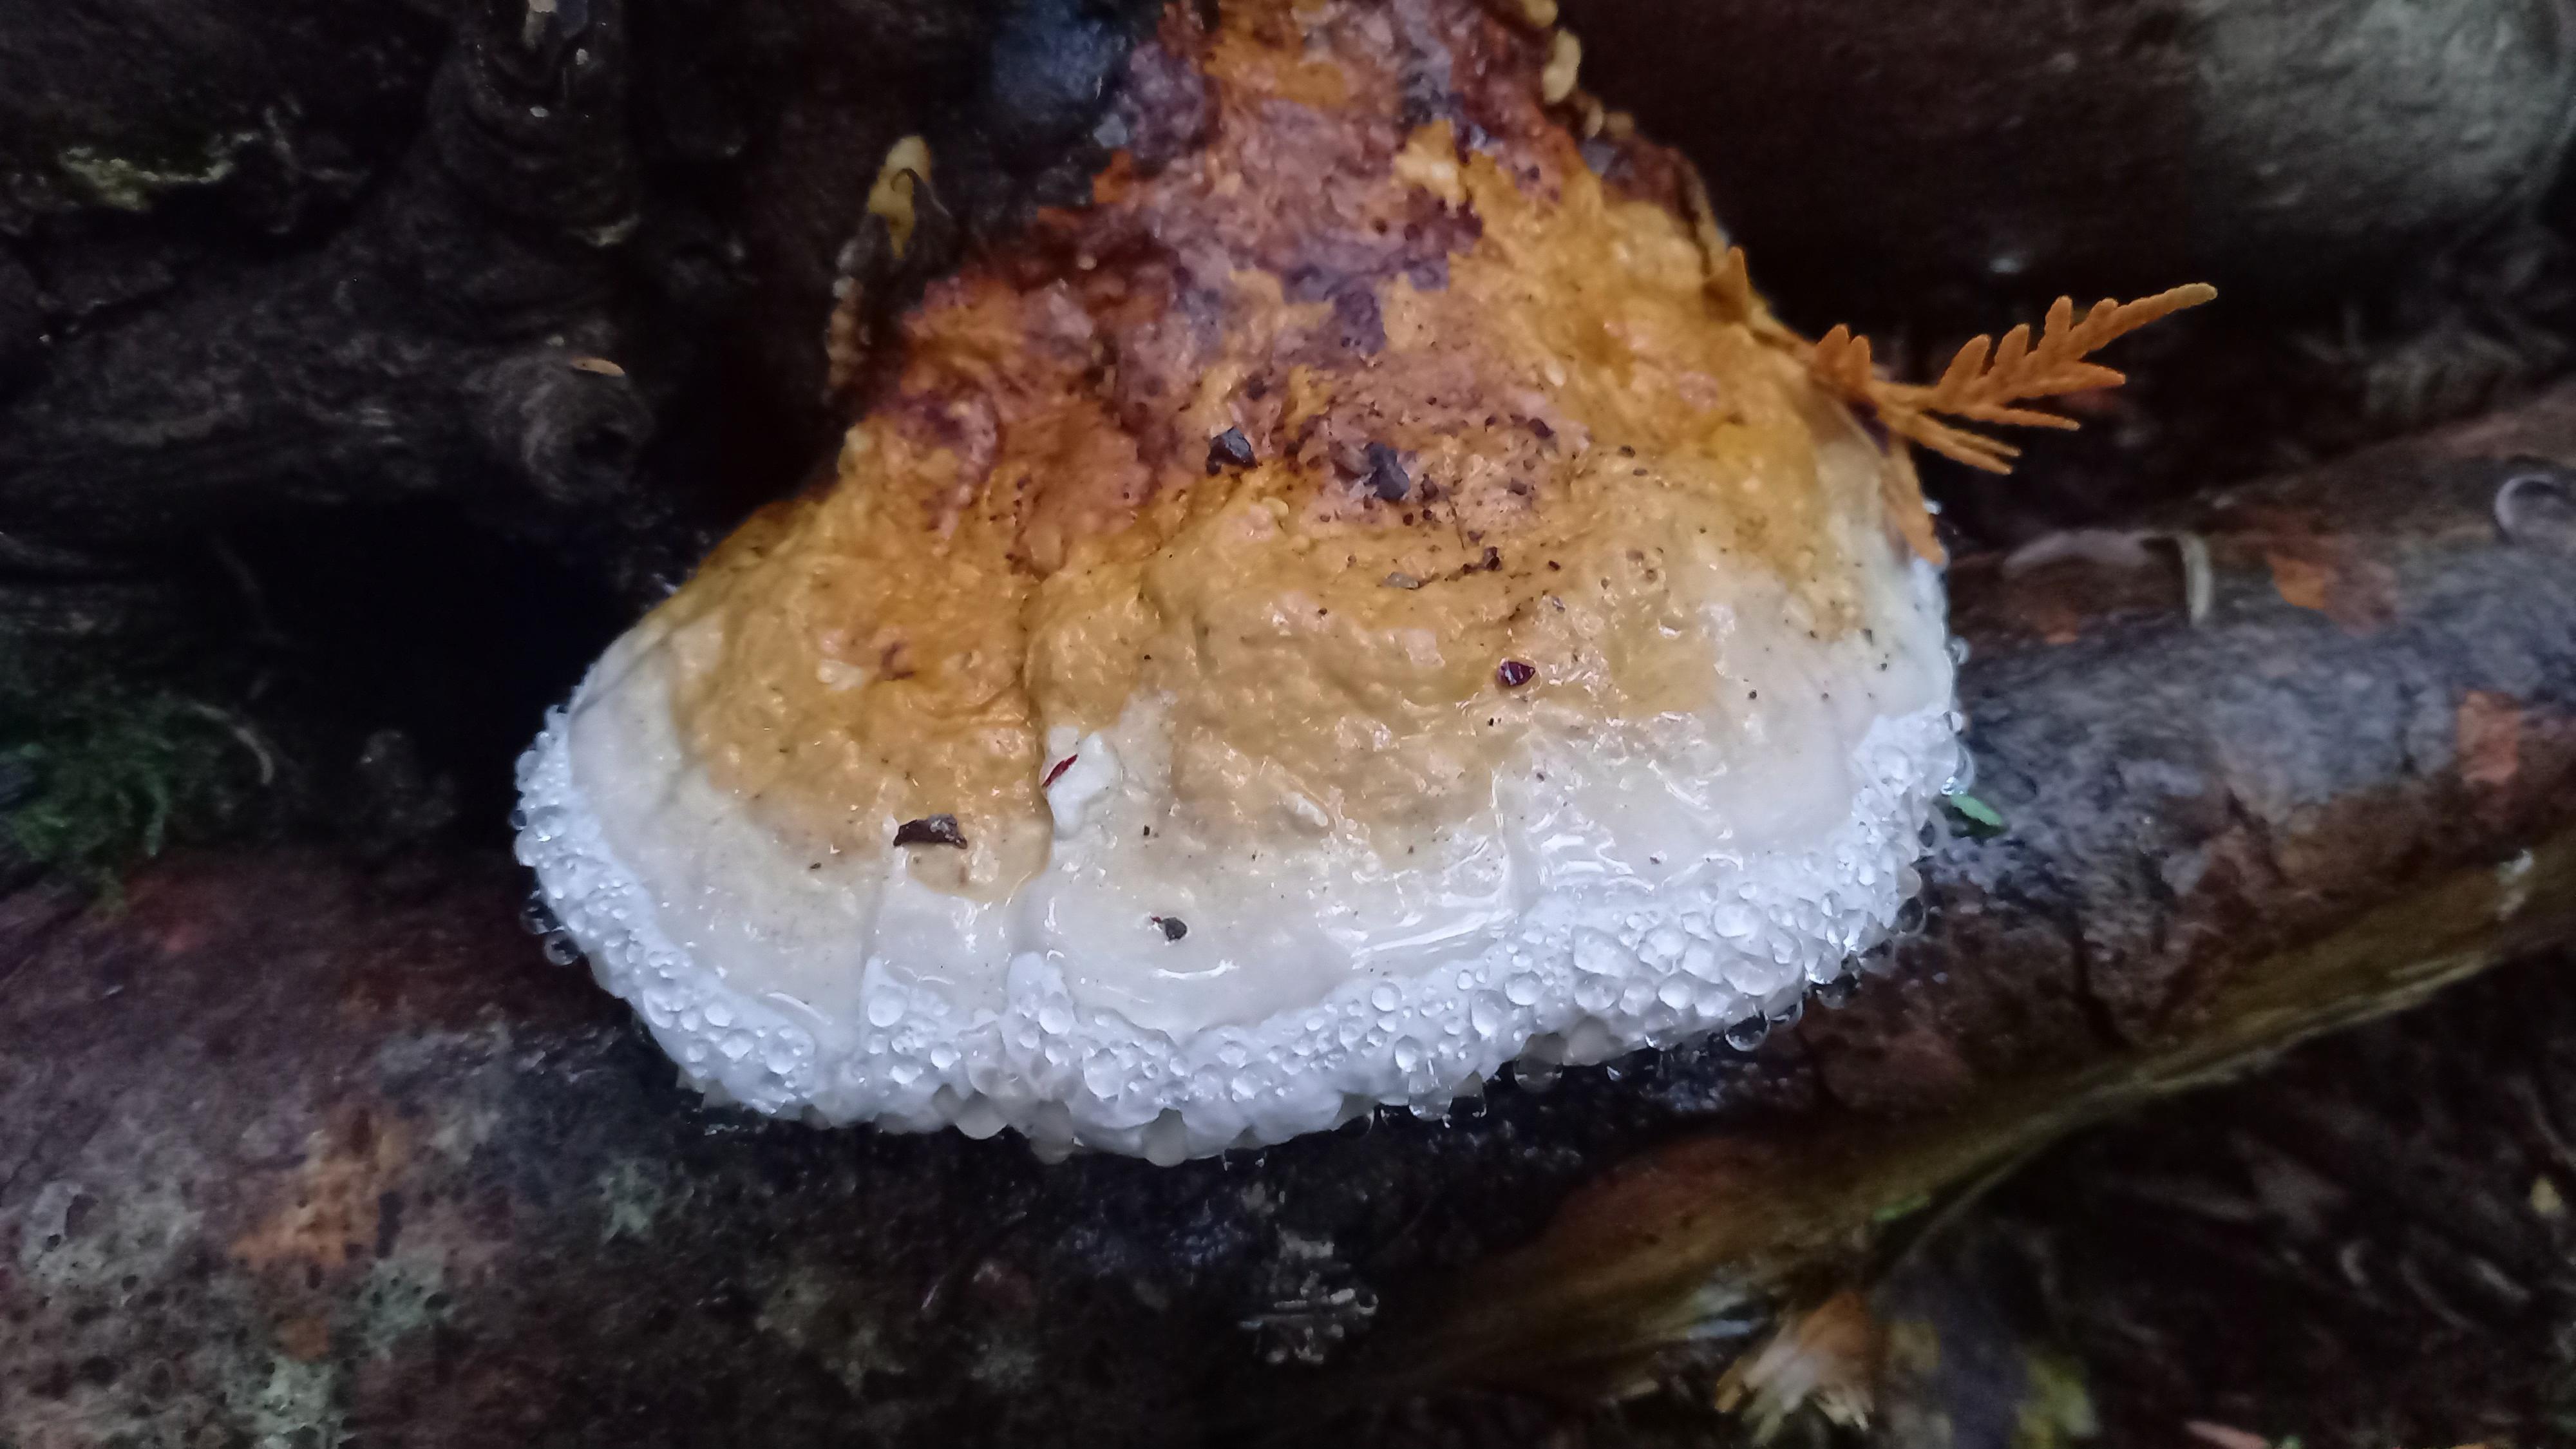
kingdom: Fungi
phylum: Basidiomycota
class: Agaricomycetes
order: Polyporales
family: Fomitopsidaceae
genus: Fomitopsis
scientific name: Fomitopsis pinicola
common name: randbæltet hovporesvamp
